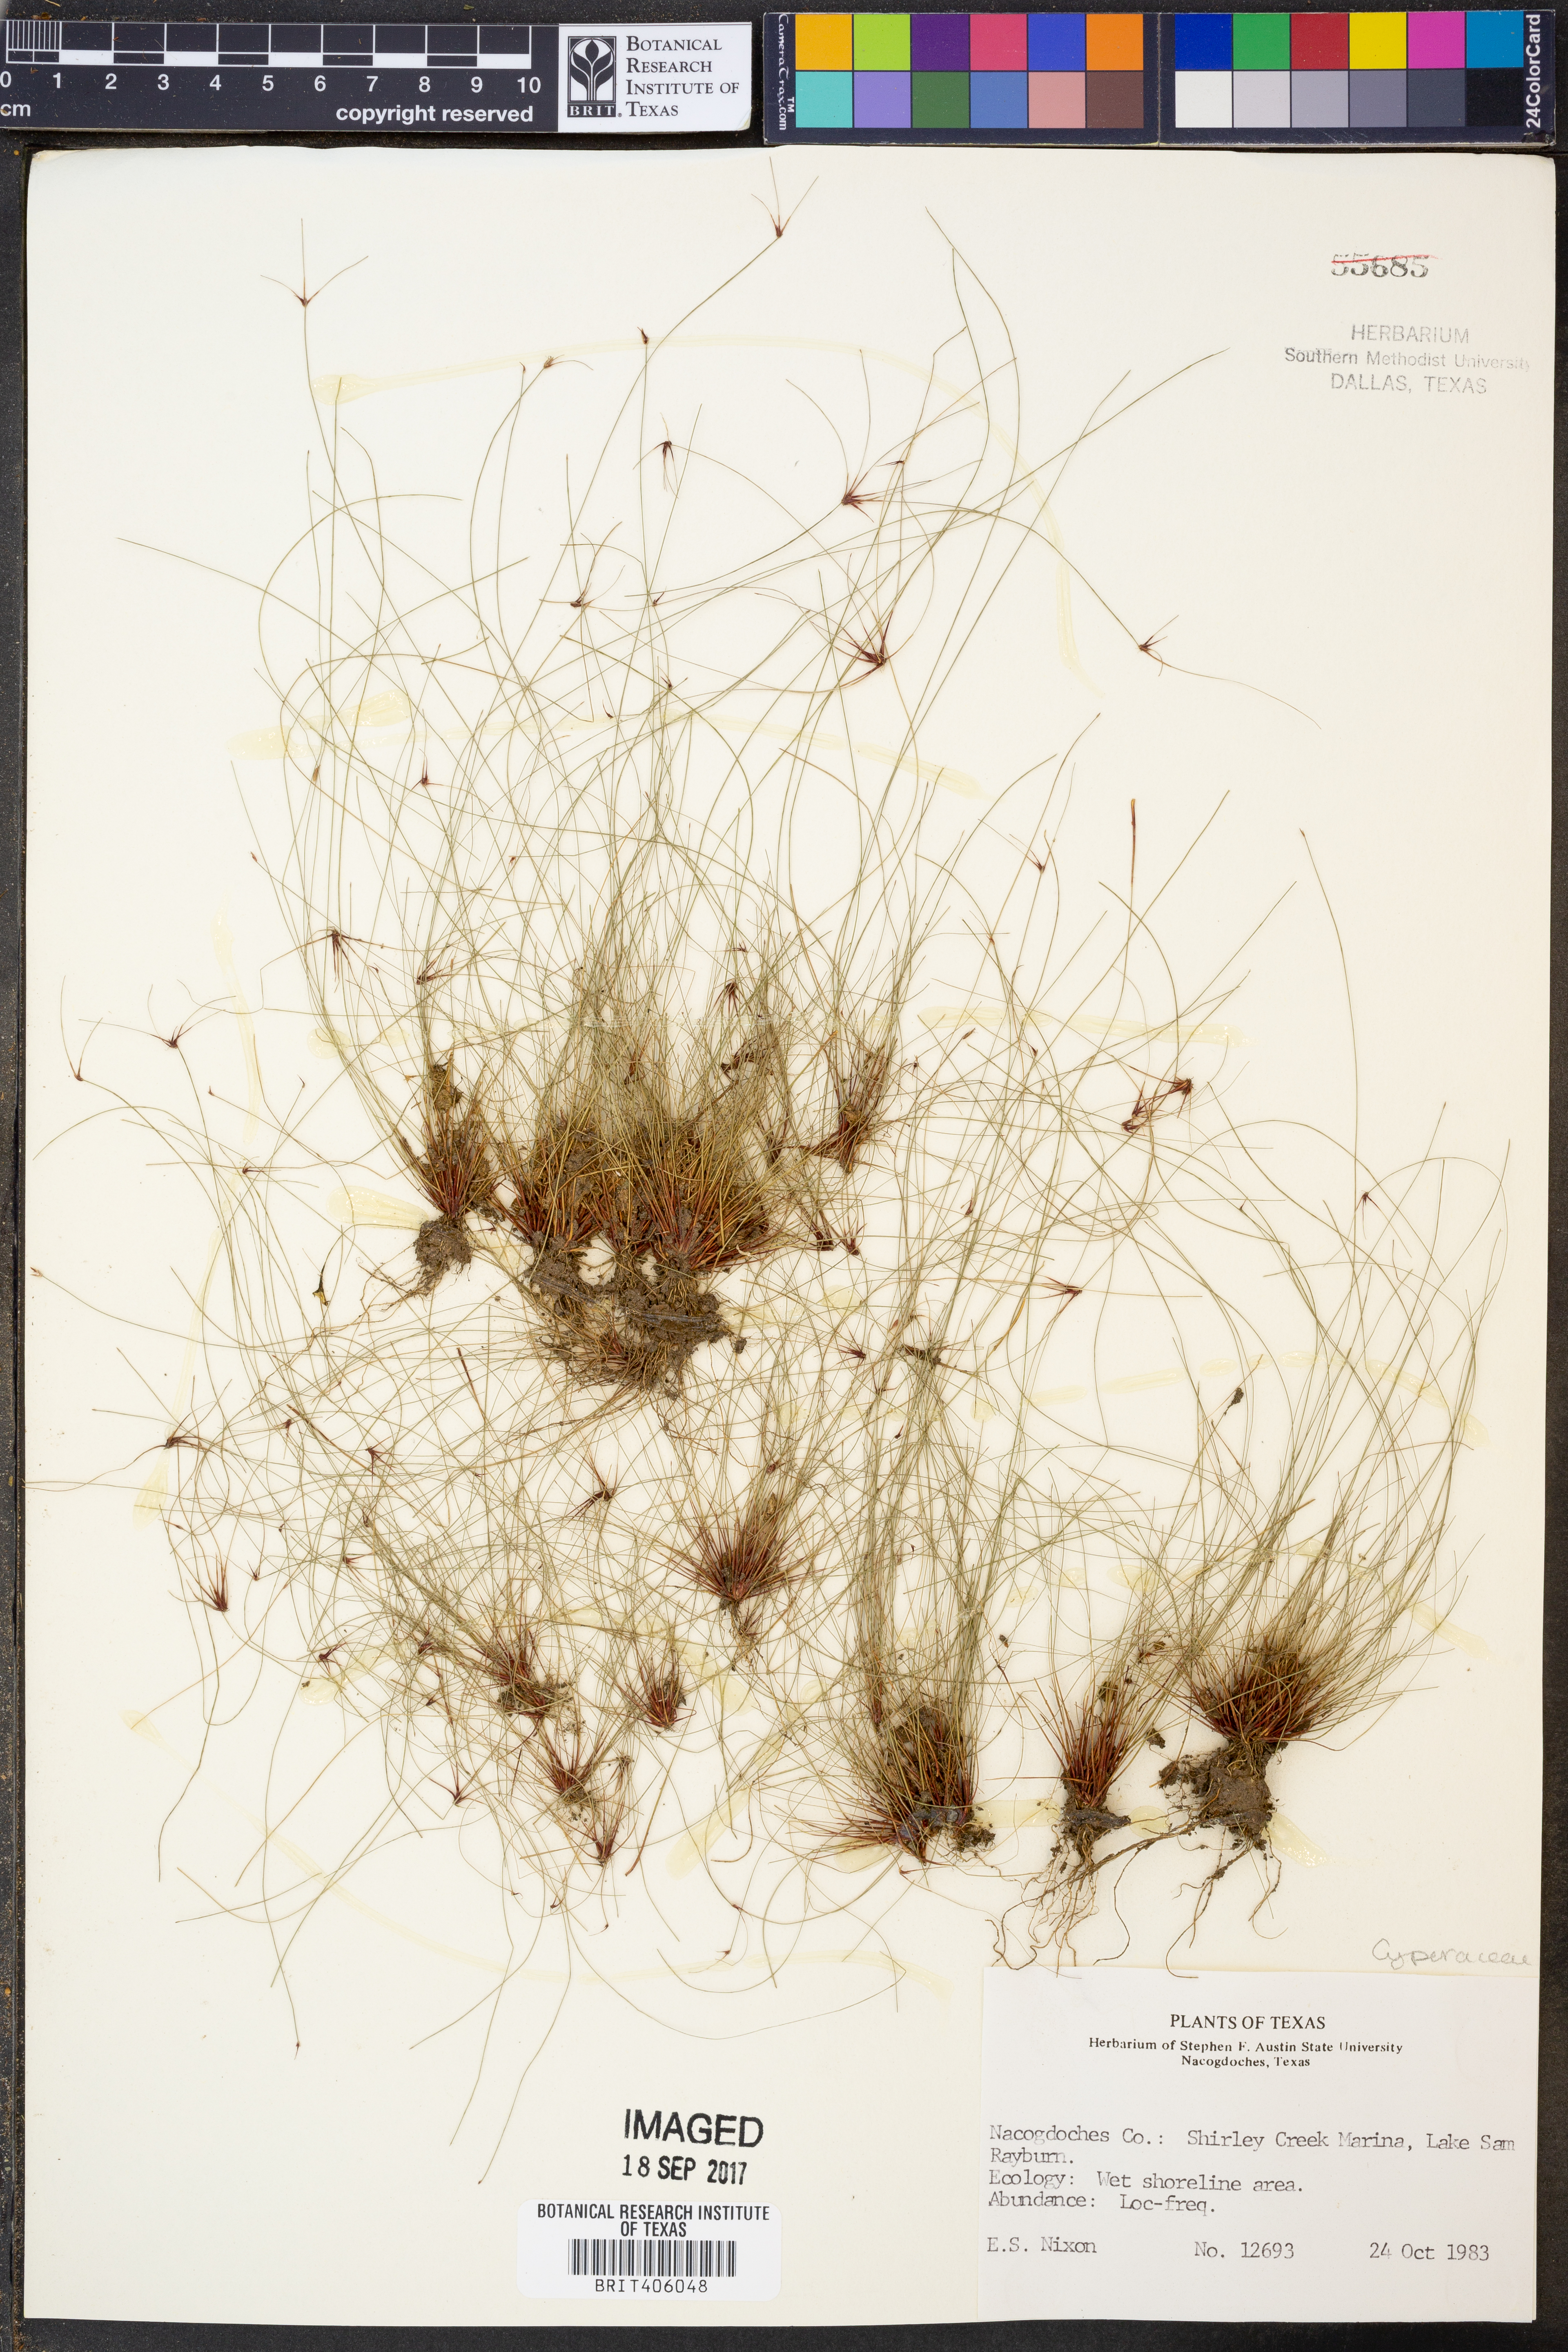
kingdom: Plantae
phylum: Tracheophyta
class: Liliopsida
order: Poales
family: Cyperaceae
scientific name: Cyperaceae
